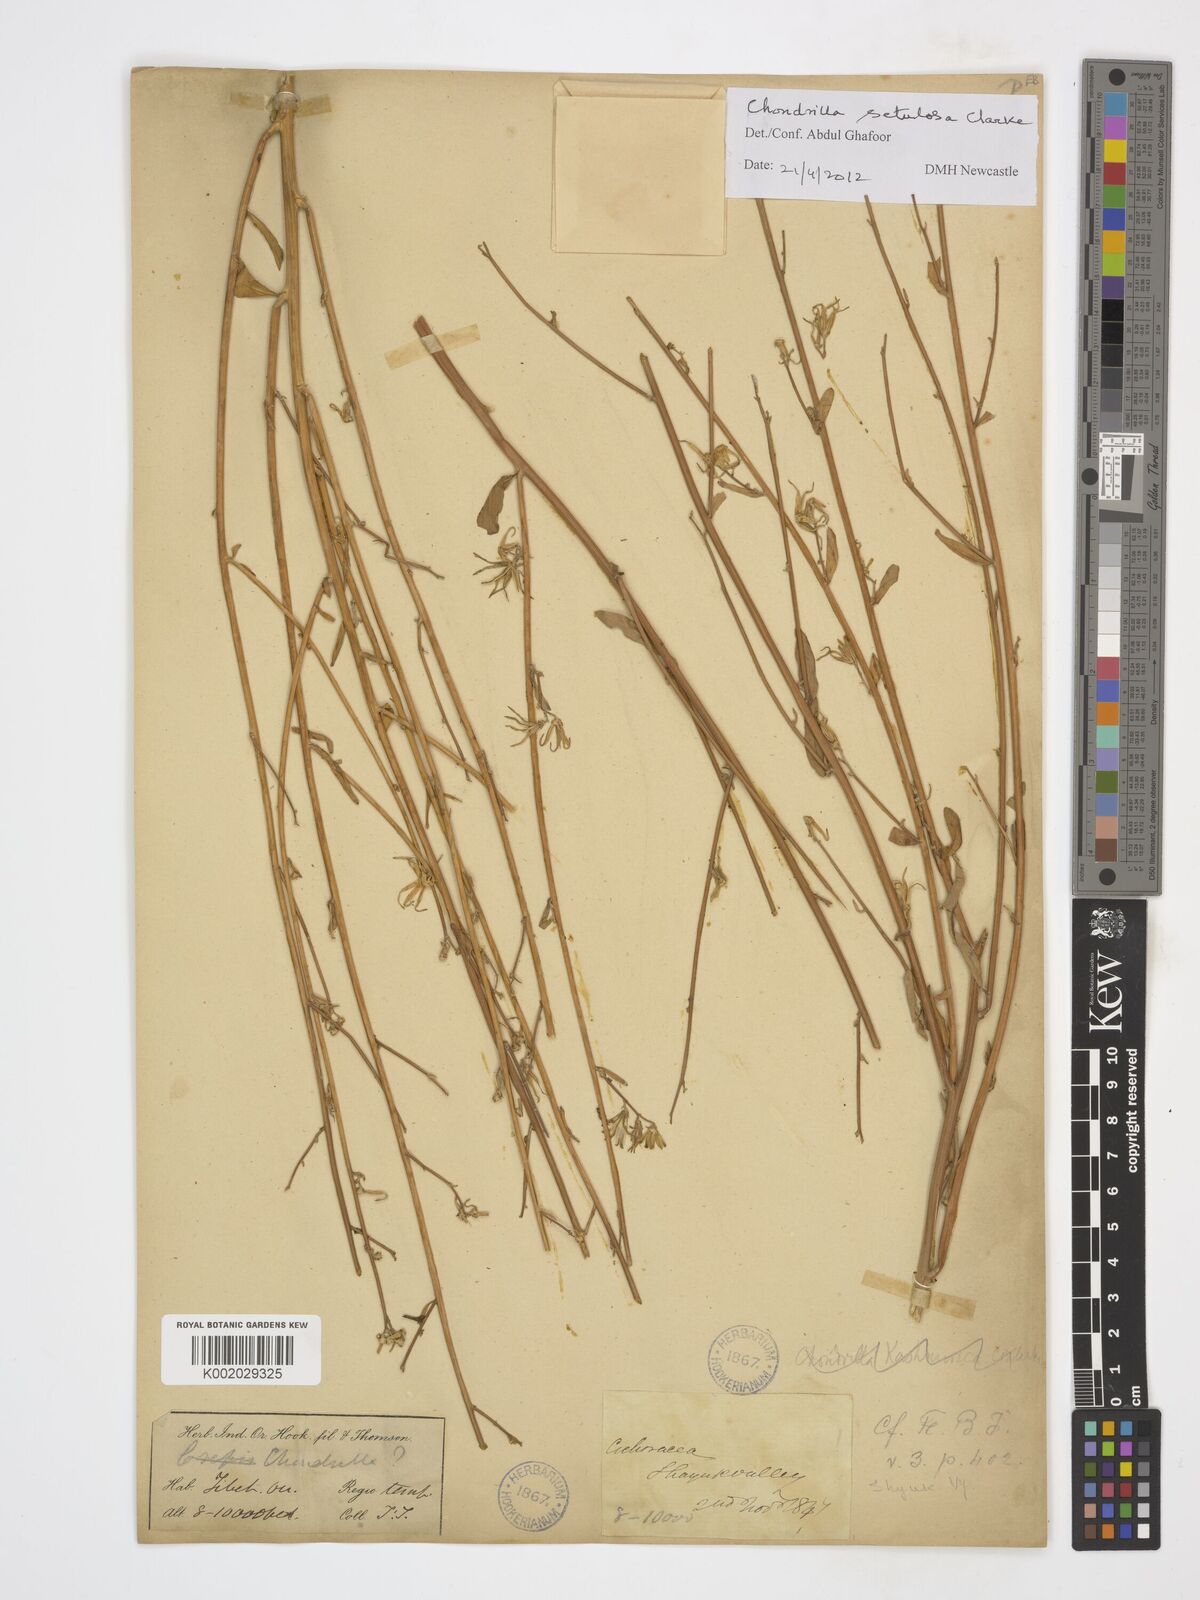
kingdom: Plantae
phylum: Tracheophyta
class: Magnoliopsida
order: Asterales
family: Asteraceae
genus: Chondrilla
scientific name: Chondrilla setulosa
